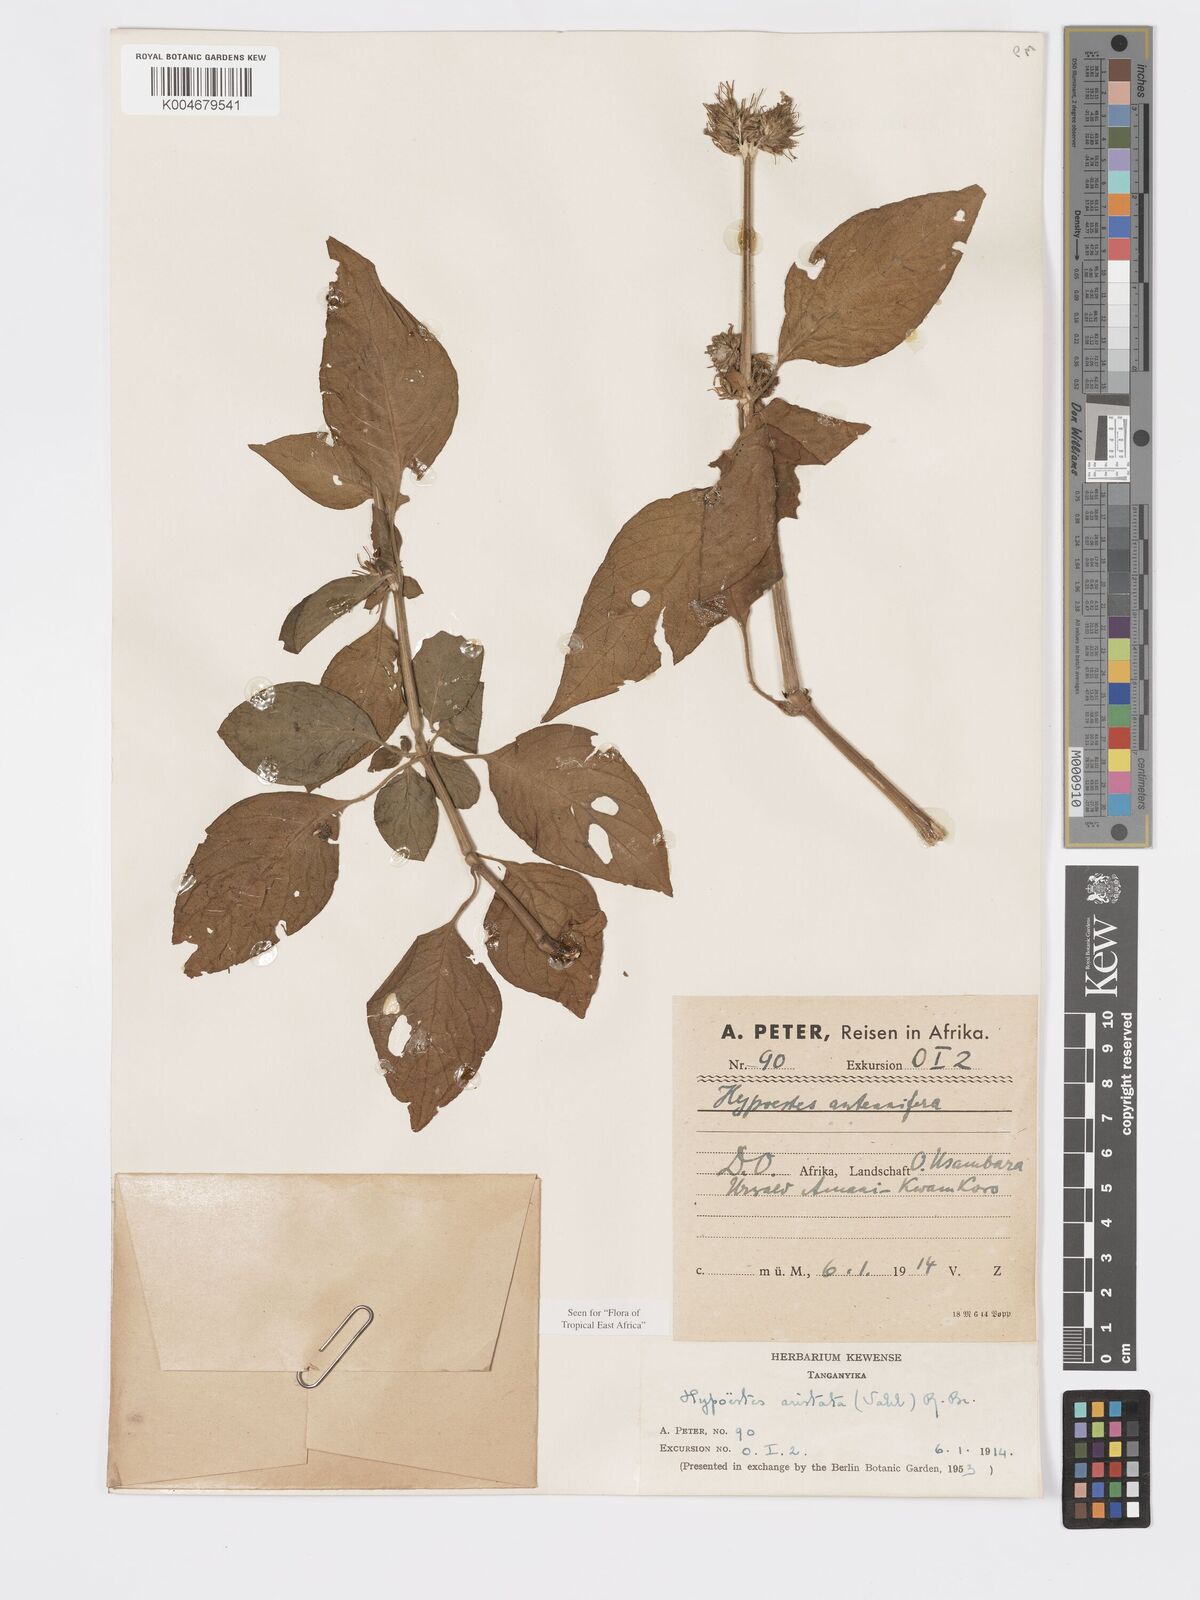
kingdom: Plantae
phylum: Tracheophyta
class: Magnoliopsida
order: Lamiales
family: Acanthaceae
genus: Hypoestes
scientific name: Hypoestes aristata
